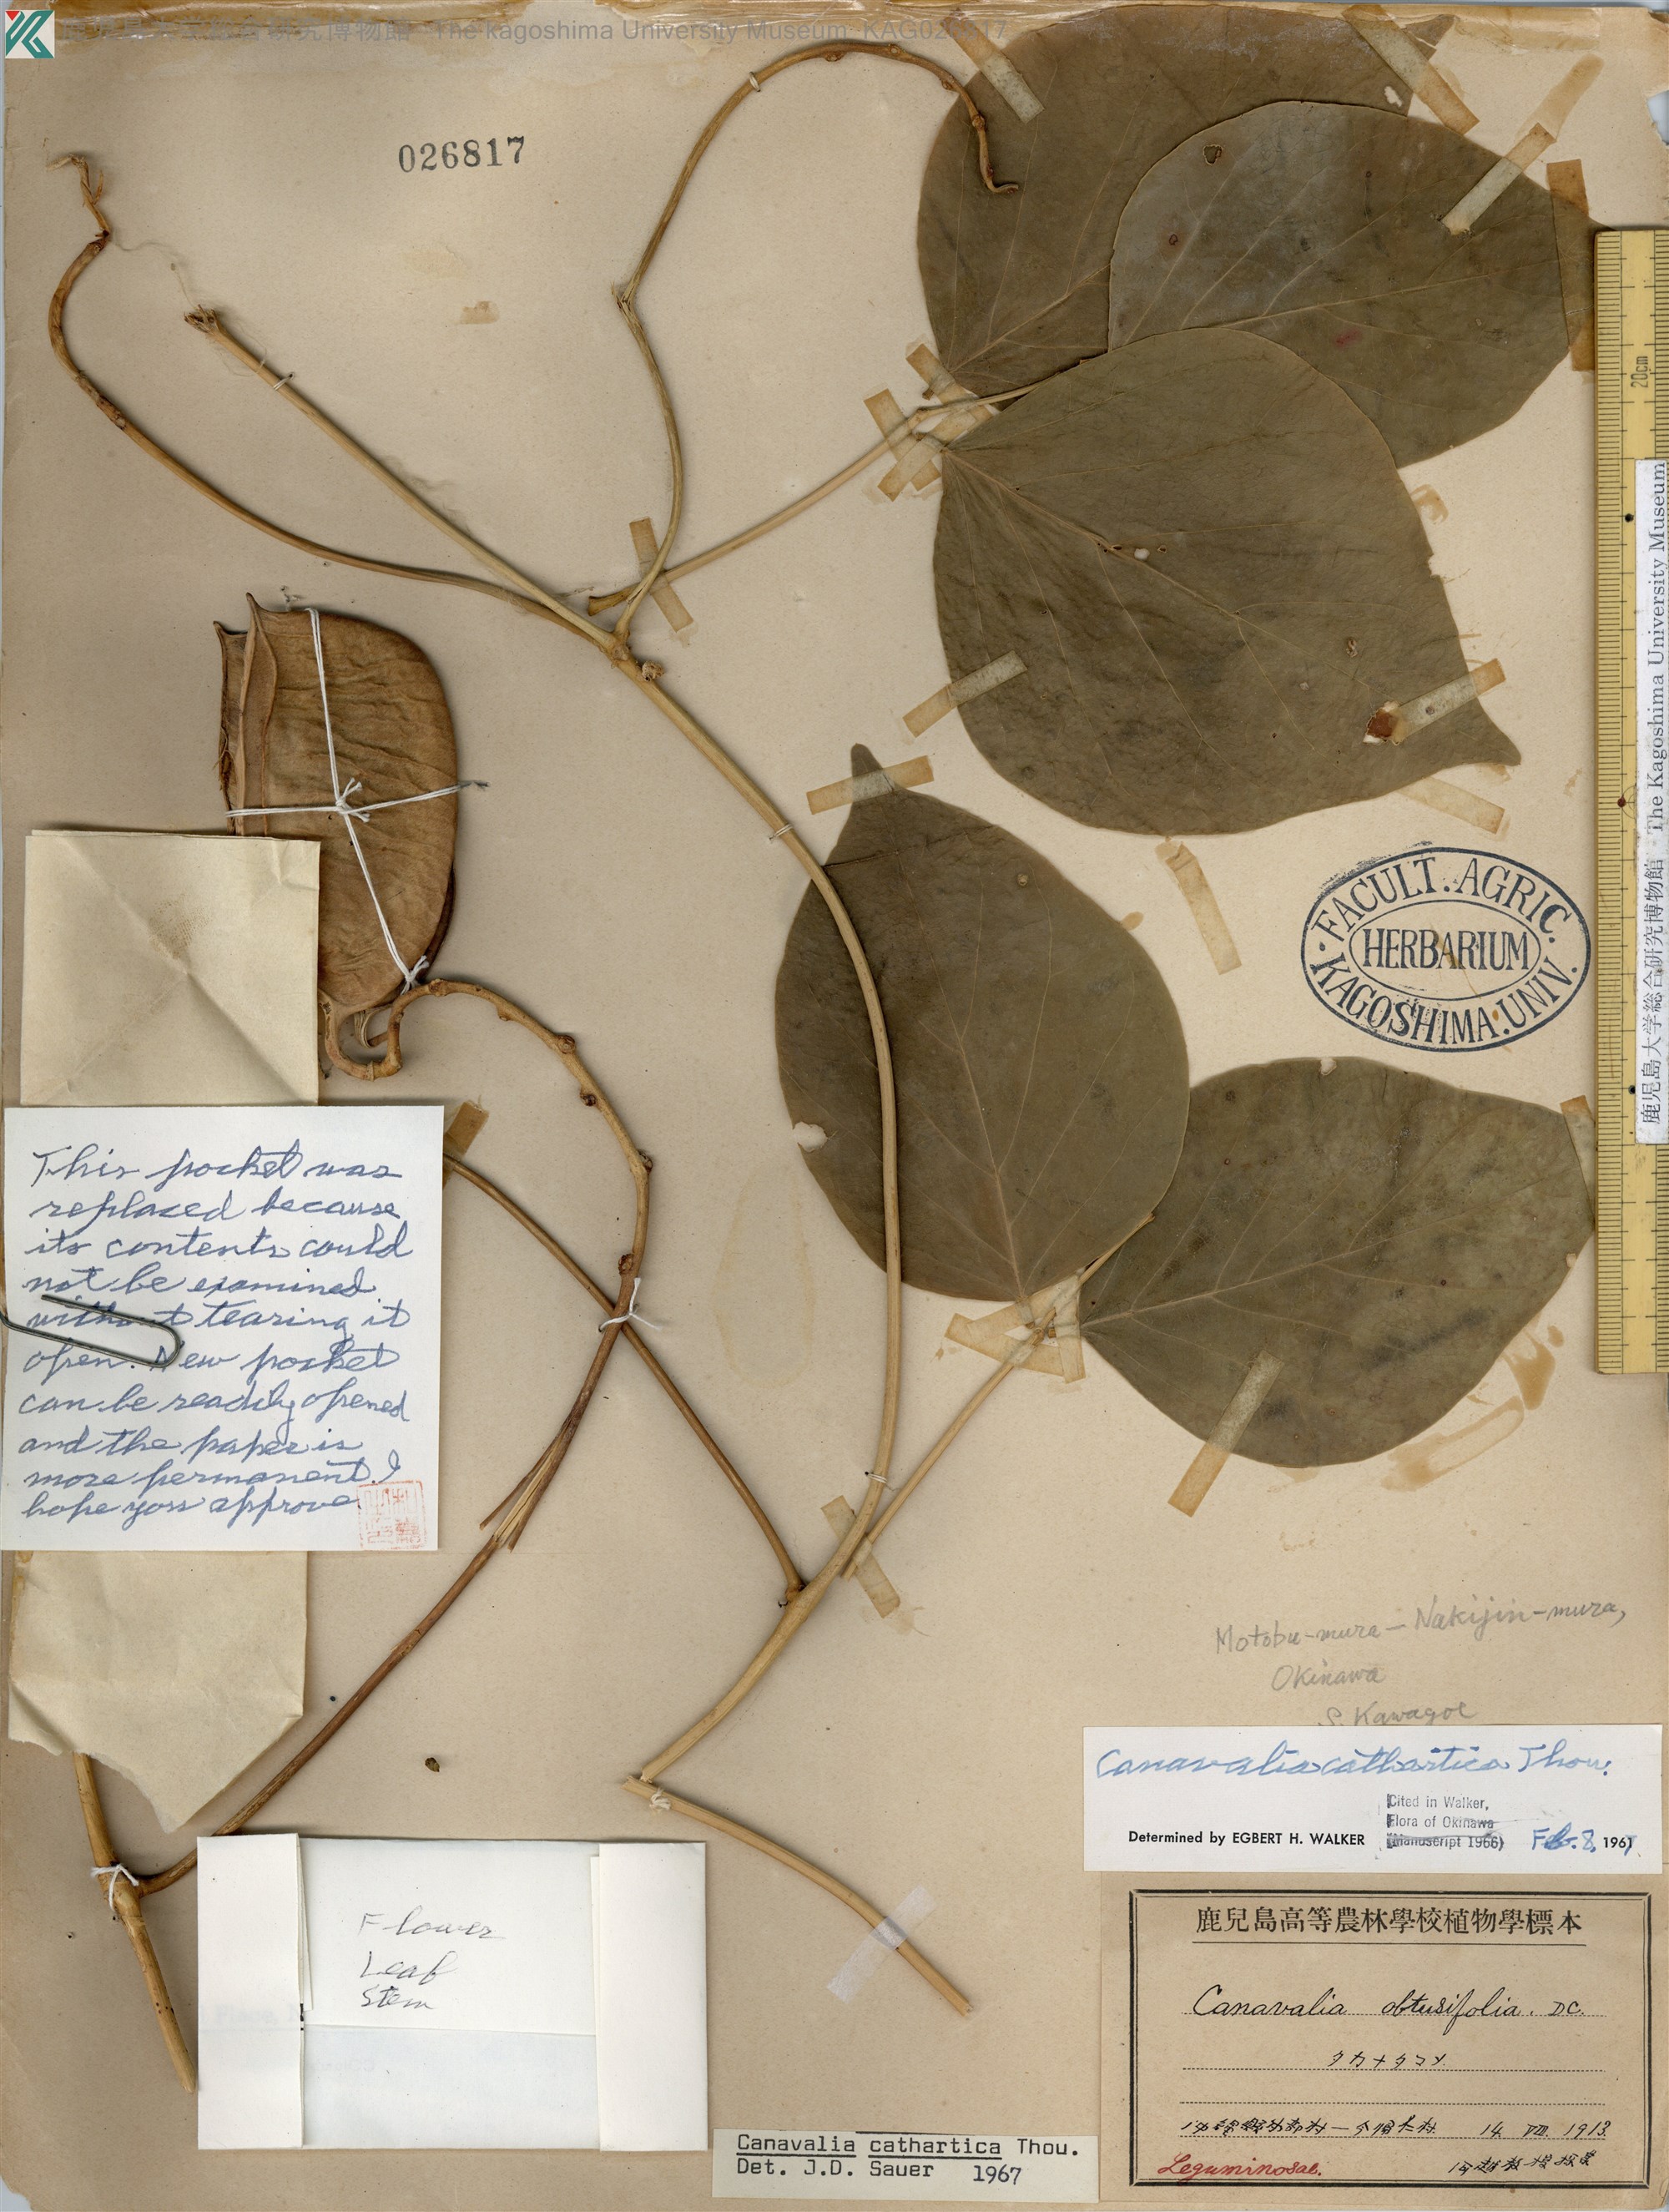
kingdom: Plantae
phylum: Tracheophyta
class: Magnoliopsida
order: Fabales
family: Fabaceae
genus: Canavalia
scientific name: Canavalia cathartica
